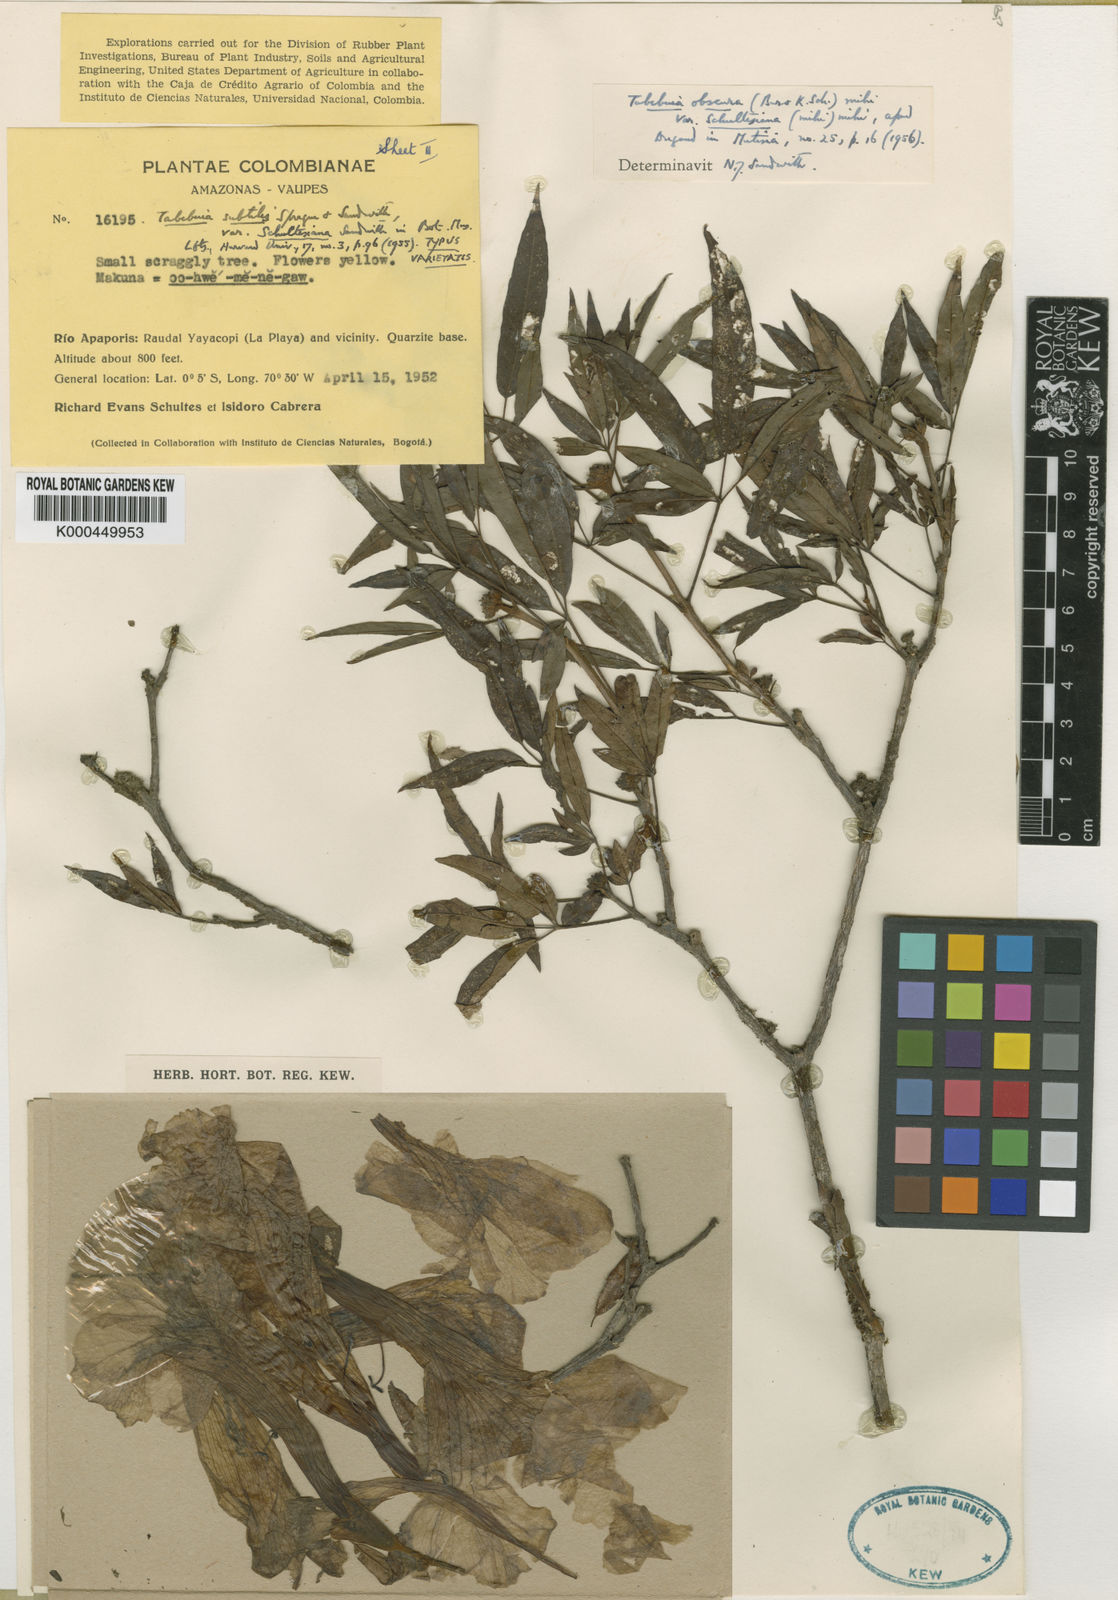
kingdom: Plantae
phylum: Tracheophyta
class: Magnoliopsida
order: Lamiales
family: Bignoniaceae
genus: Handroanthus
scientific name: Handroanthus obscurus
